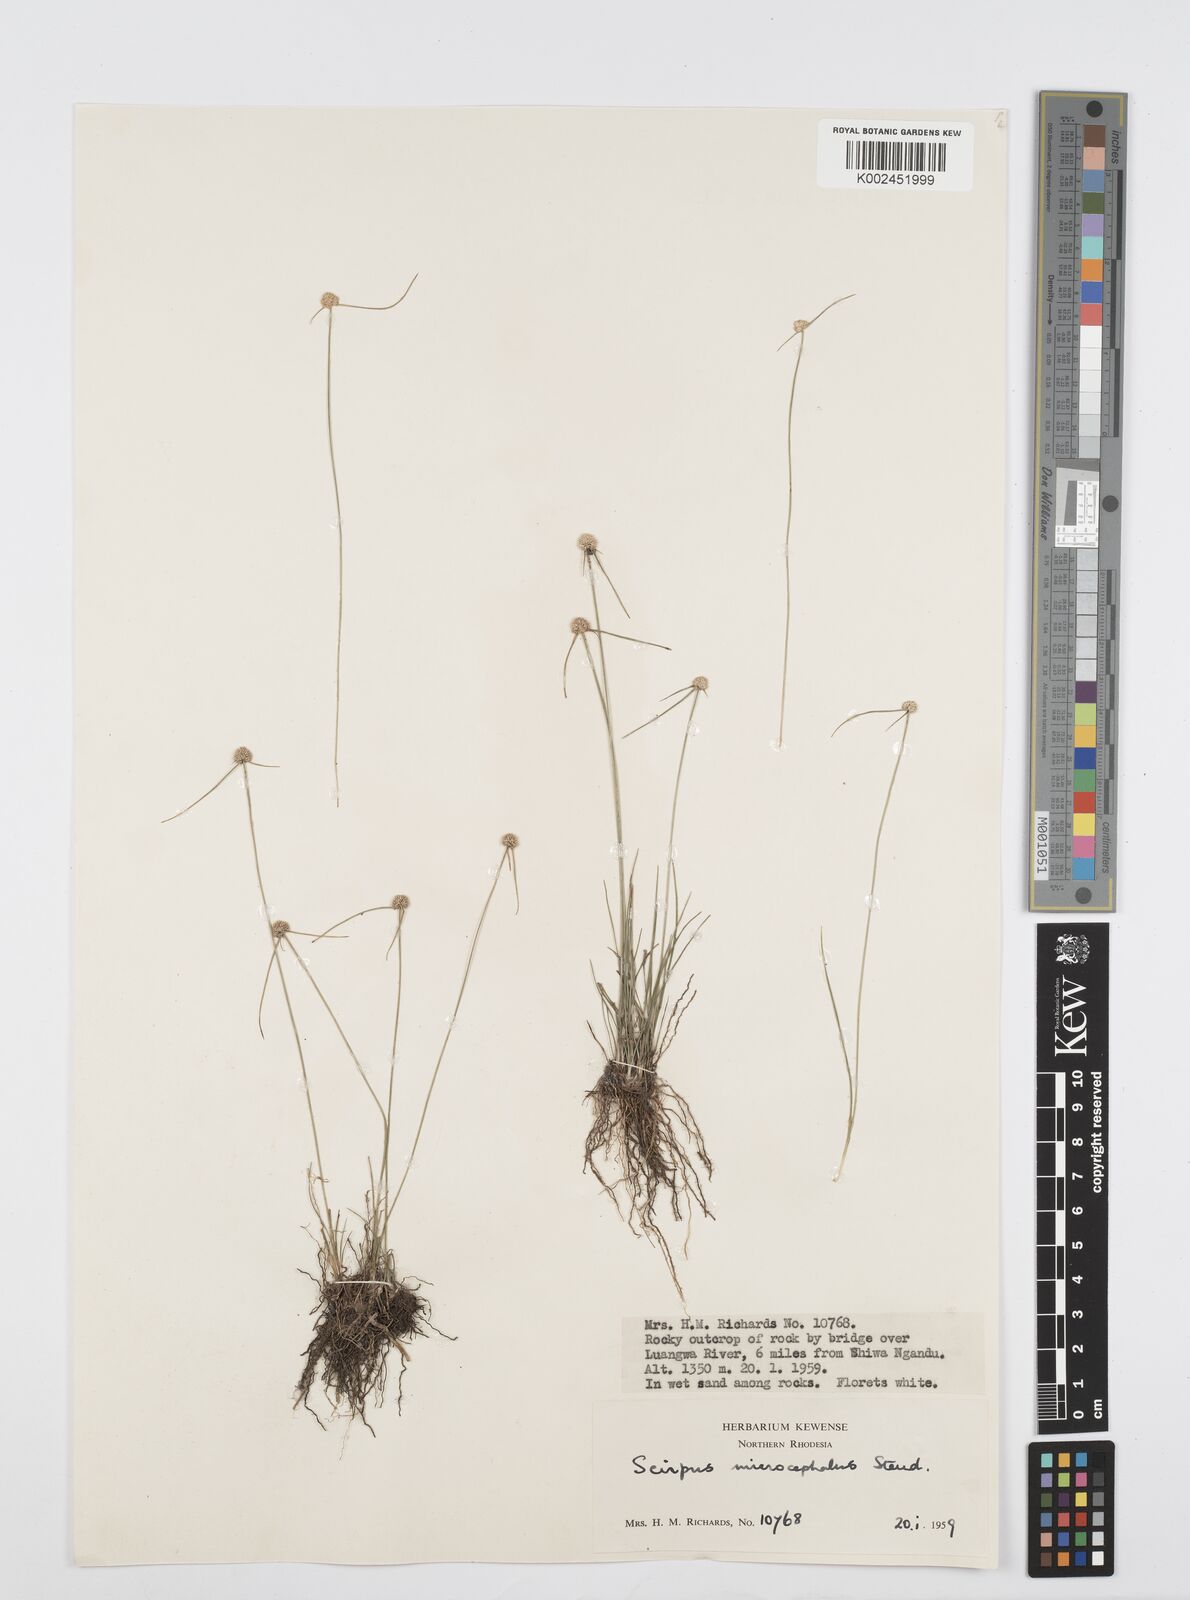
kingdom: Plantae
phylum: Tracheophyta
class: Liliopsida
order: Poales
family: Cyperaceae
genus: Cyperus
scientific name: Cyperus microcephalus
